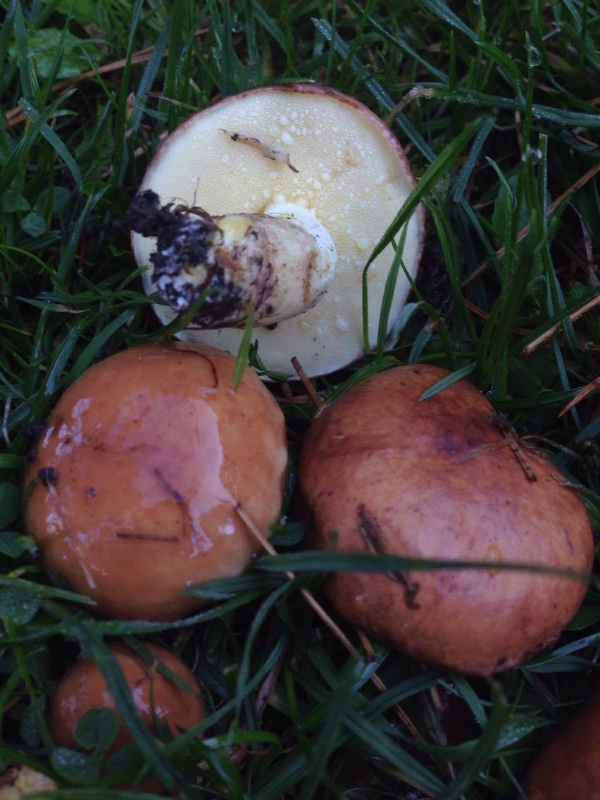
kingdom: Fungi
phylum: Basidiomycota
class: Agaricomycetes
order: Boletales
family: Suillaceae
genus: Suillus
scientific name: Suillus granulatus
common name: kornet slimrørhat
